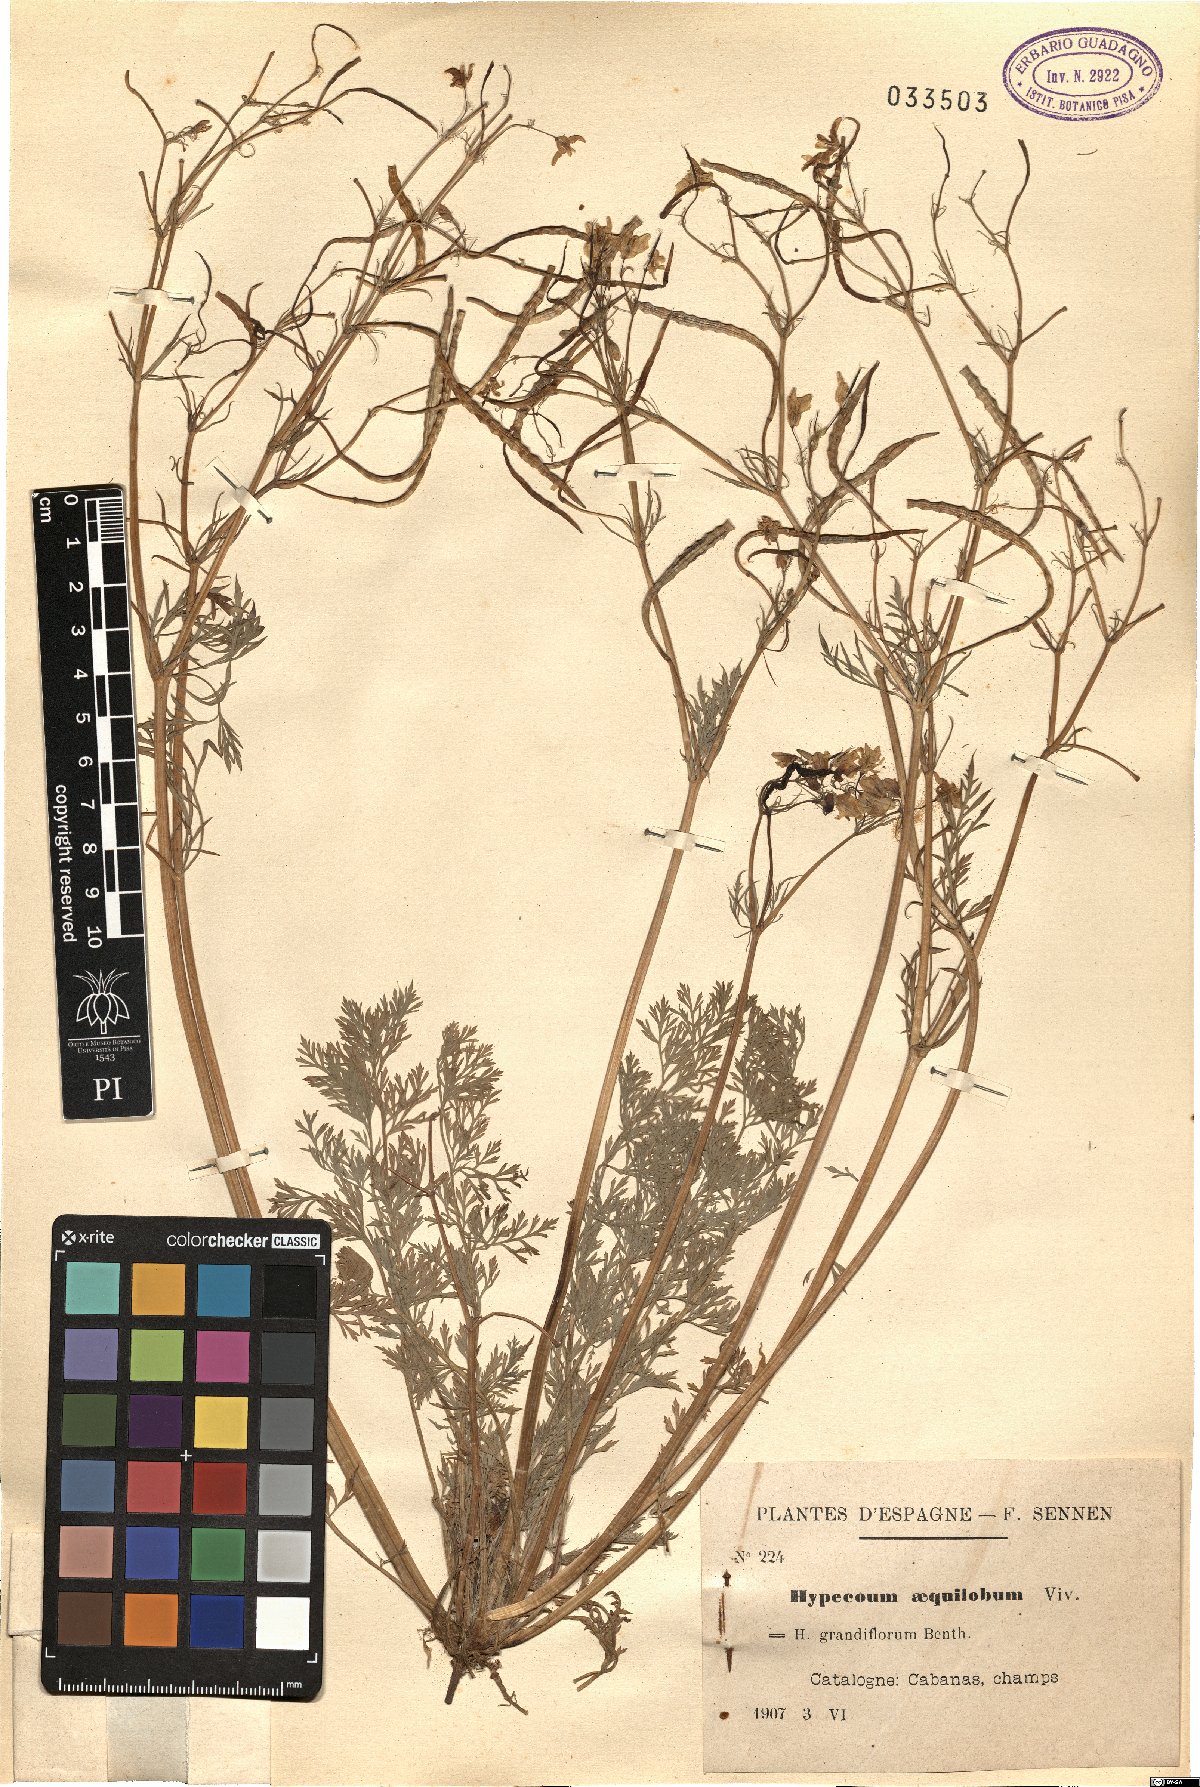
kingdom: Plantae
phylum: Tracheophyta
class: Magnoliopsida
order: Ranunculales
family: Papaveraceae
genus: Hypecoum
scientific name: Hypecoum aequilobum
